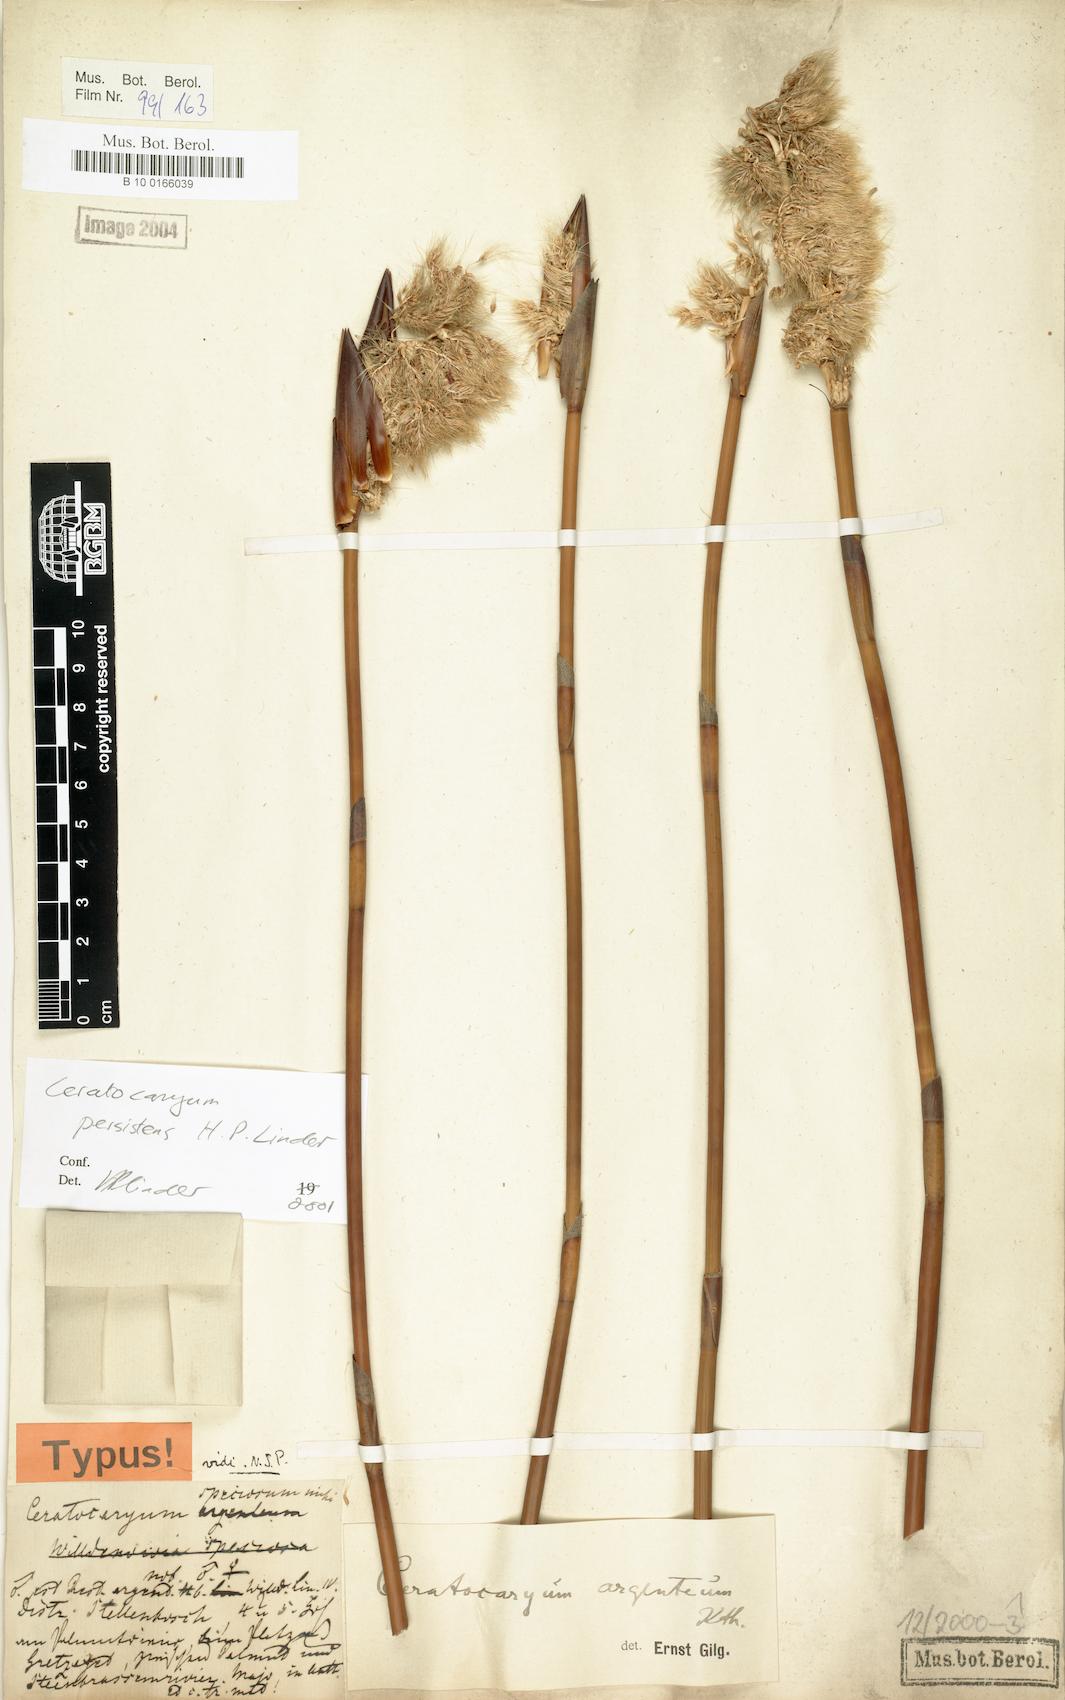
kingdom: Plantae
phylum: Tracheophyta
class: Liliopsida
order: Poales
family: Restionaceae
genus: Ceratocaryum
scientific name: Ceratocaryum persistens
